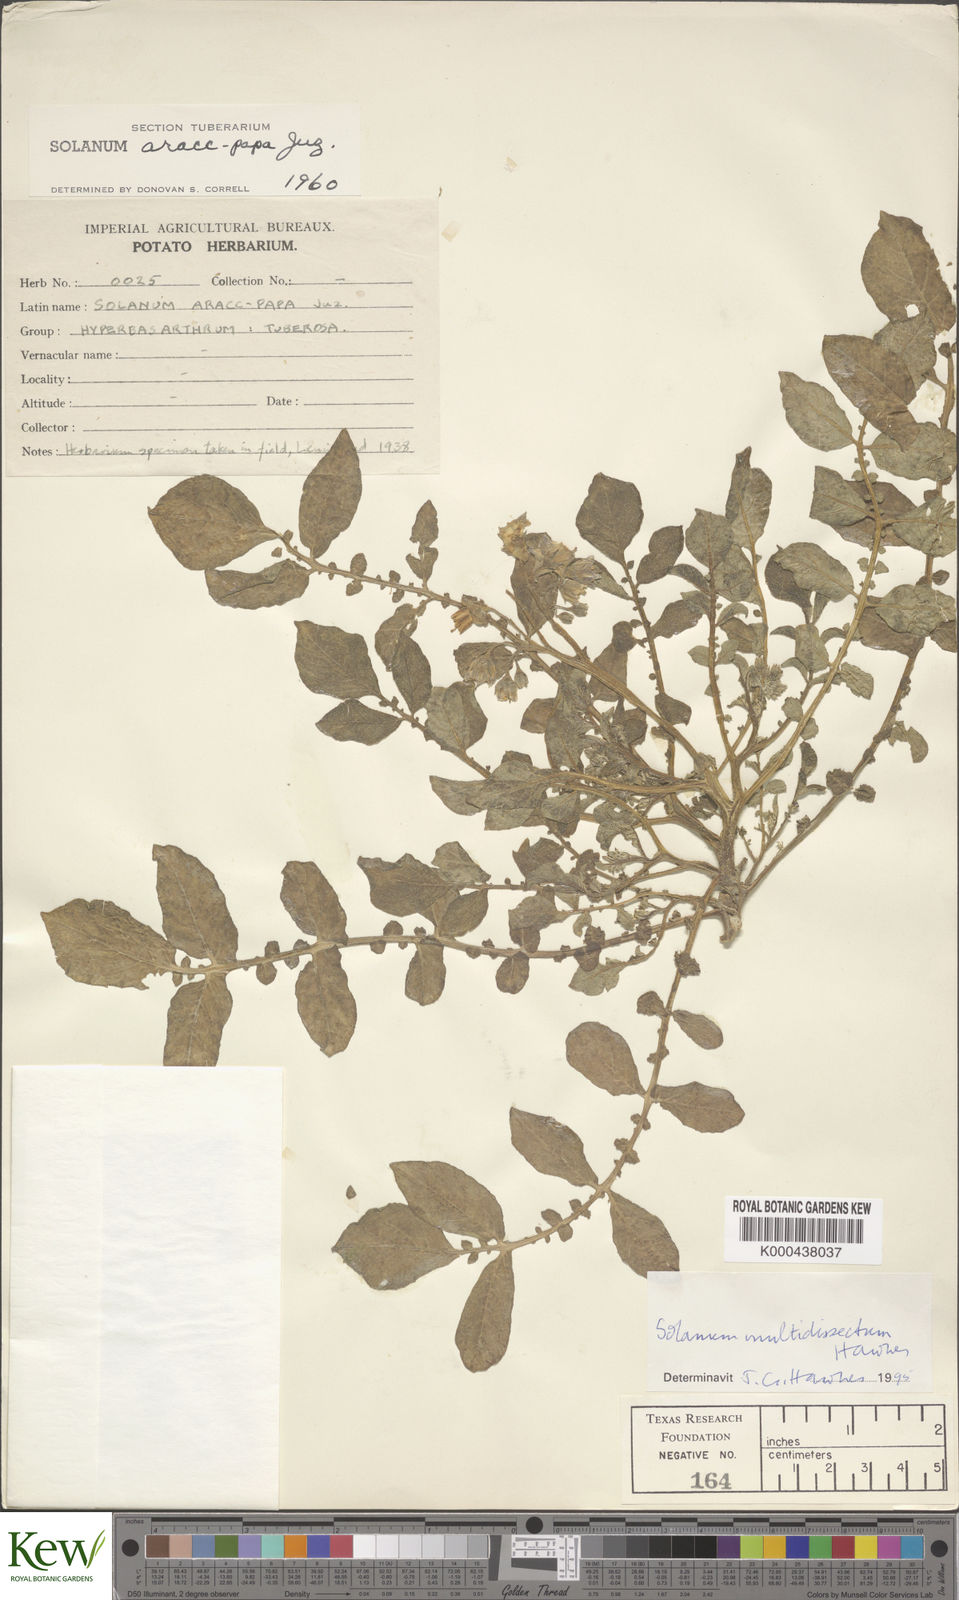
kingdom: Plantae
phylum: Tracheophyta
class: Magnoliopsida
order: Solanales
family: Solanaceae
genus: Solanum
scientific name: Solanum candolleanum
